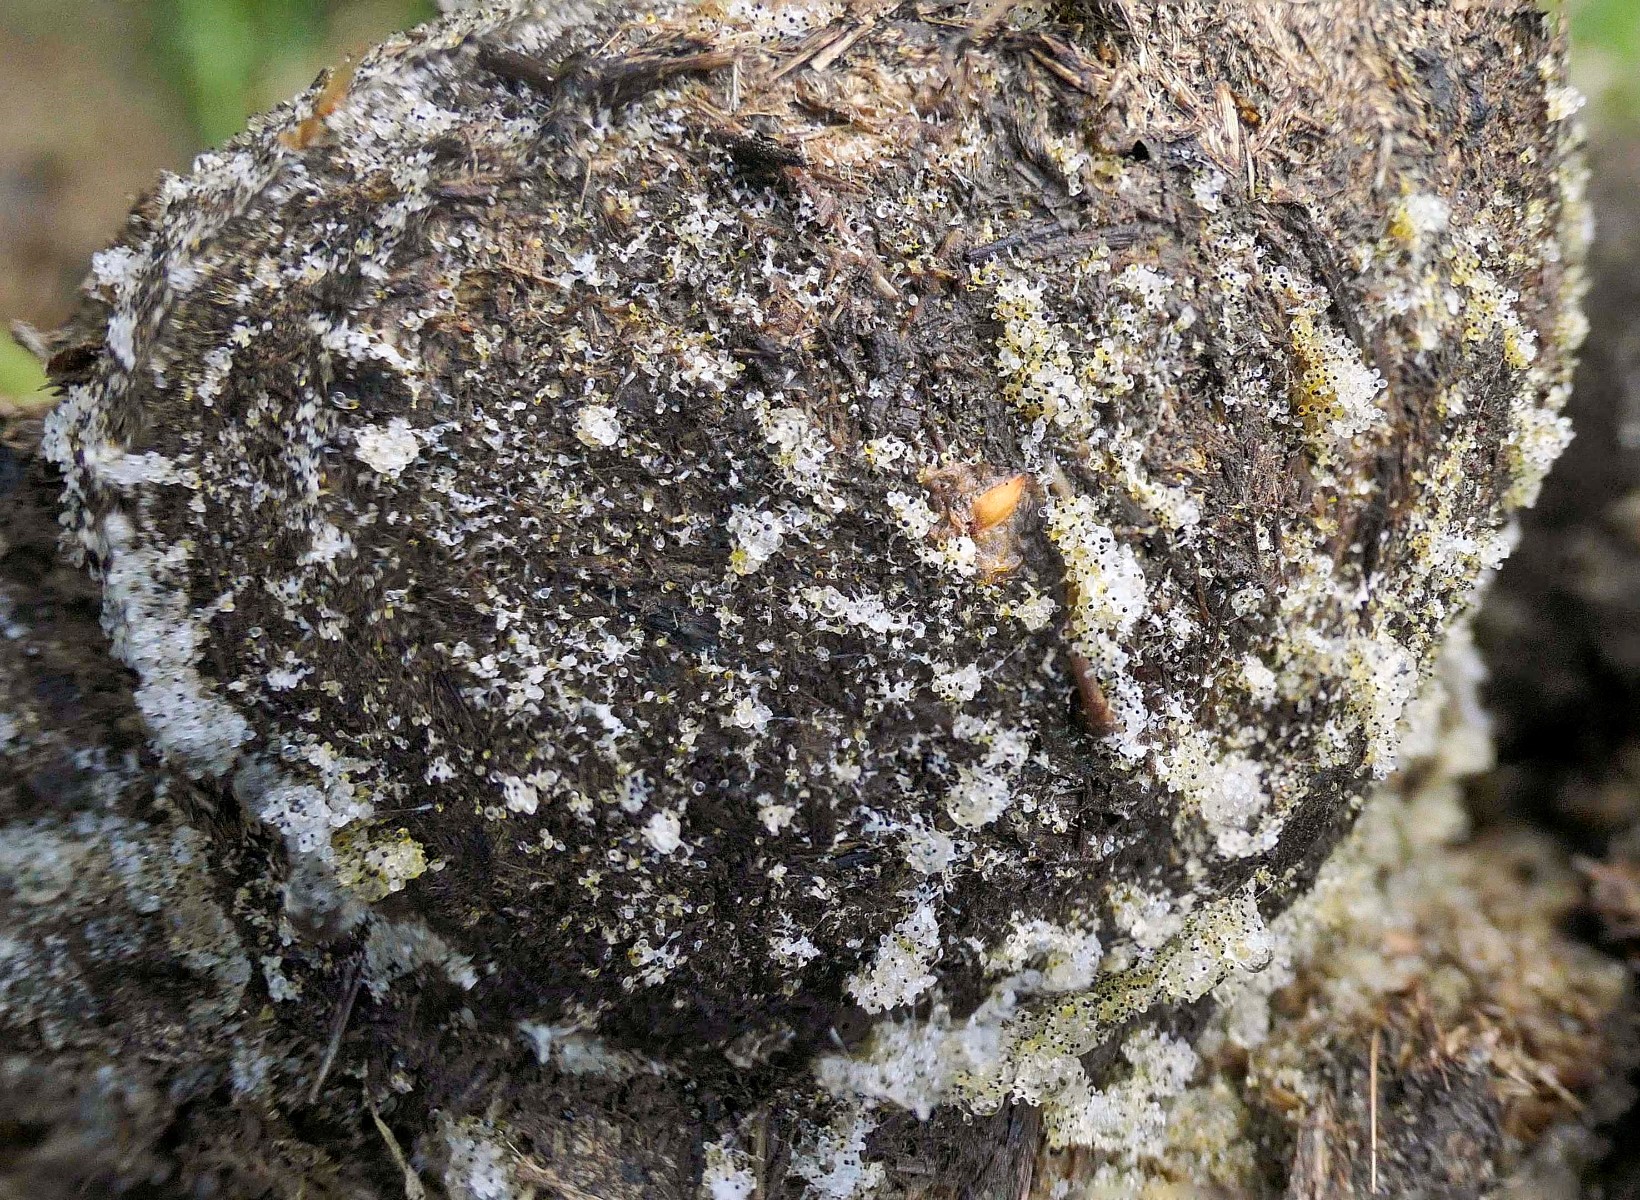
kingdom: Fungi
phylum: Mucoromycota
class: Mucoromycetes
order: Mucorales
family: Pilobolaceae
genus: Pilobolus
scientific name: Pilobolus
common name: boldkaster
